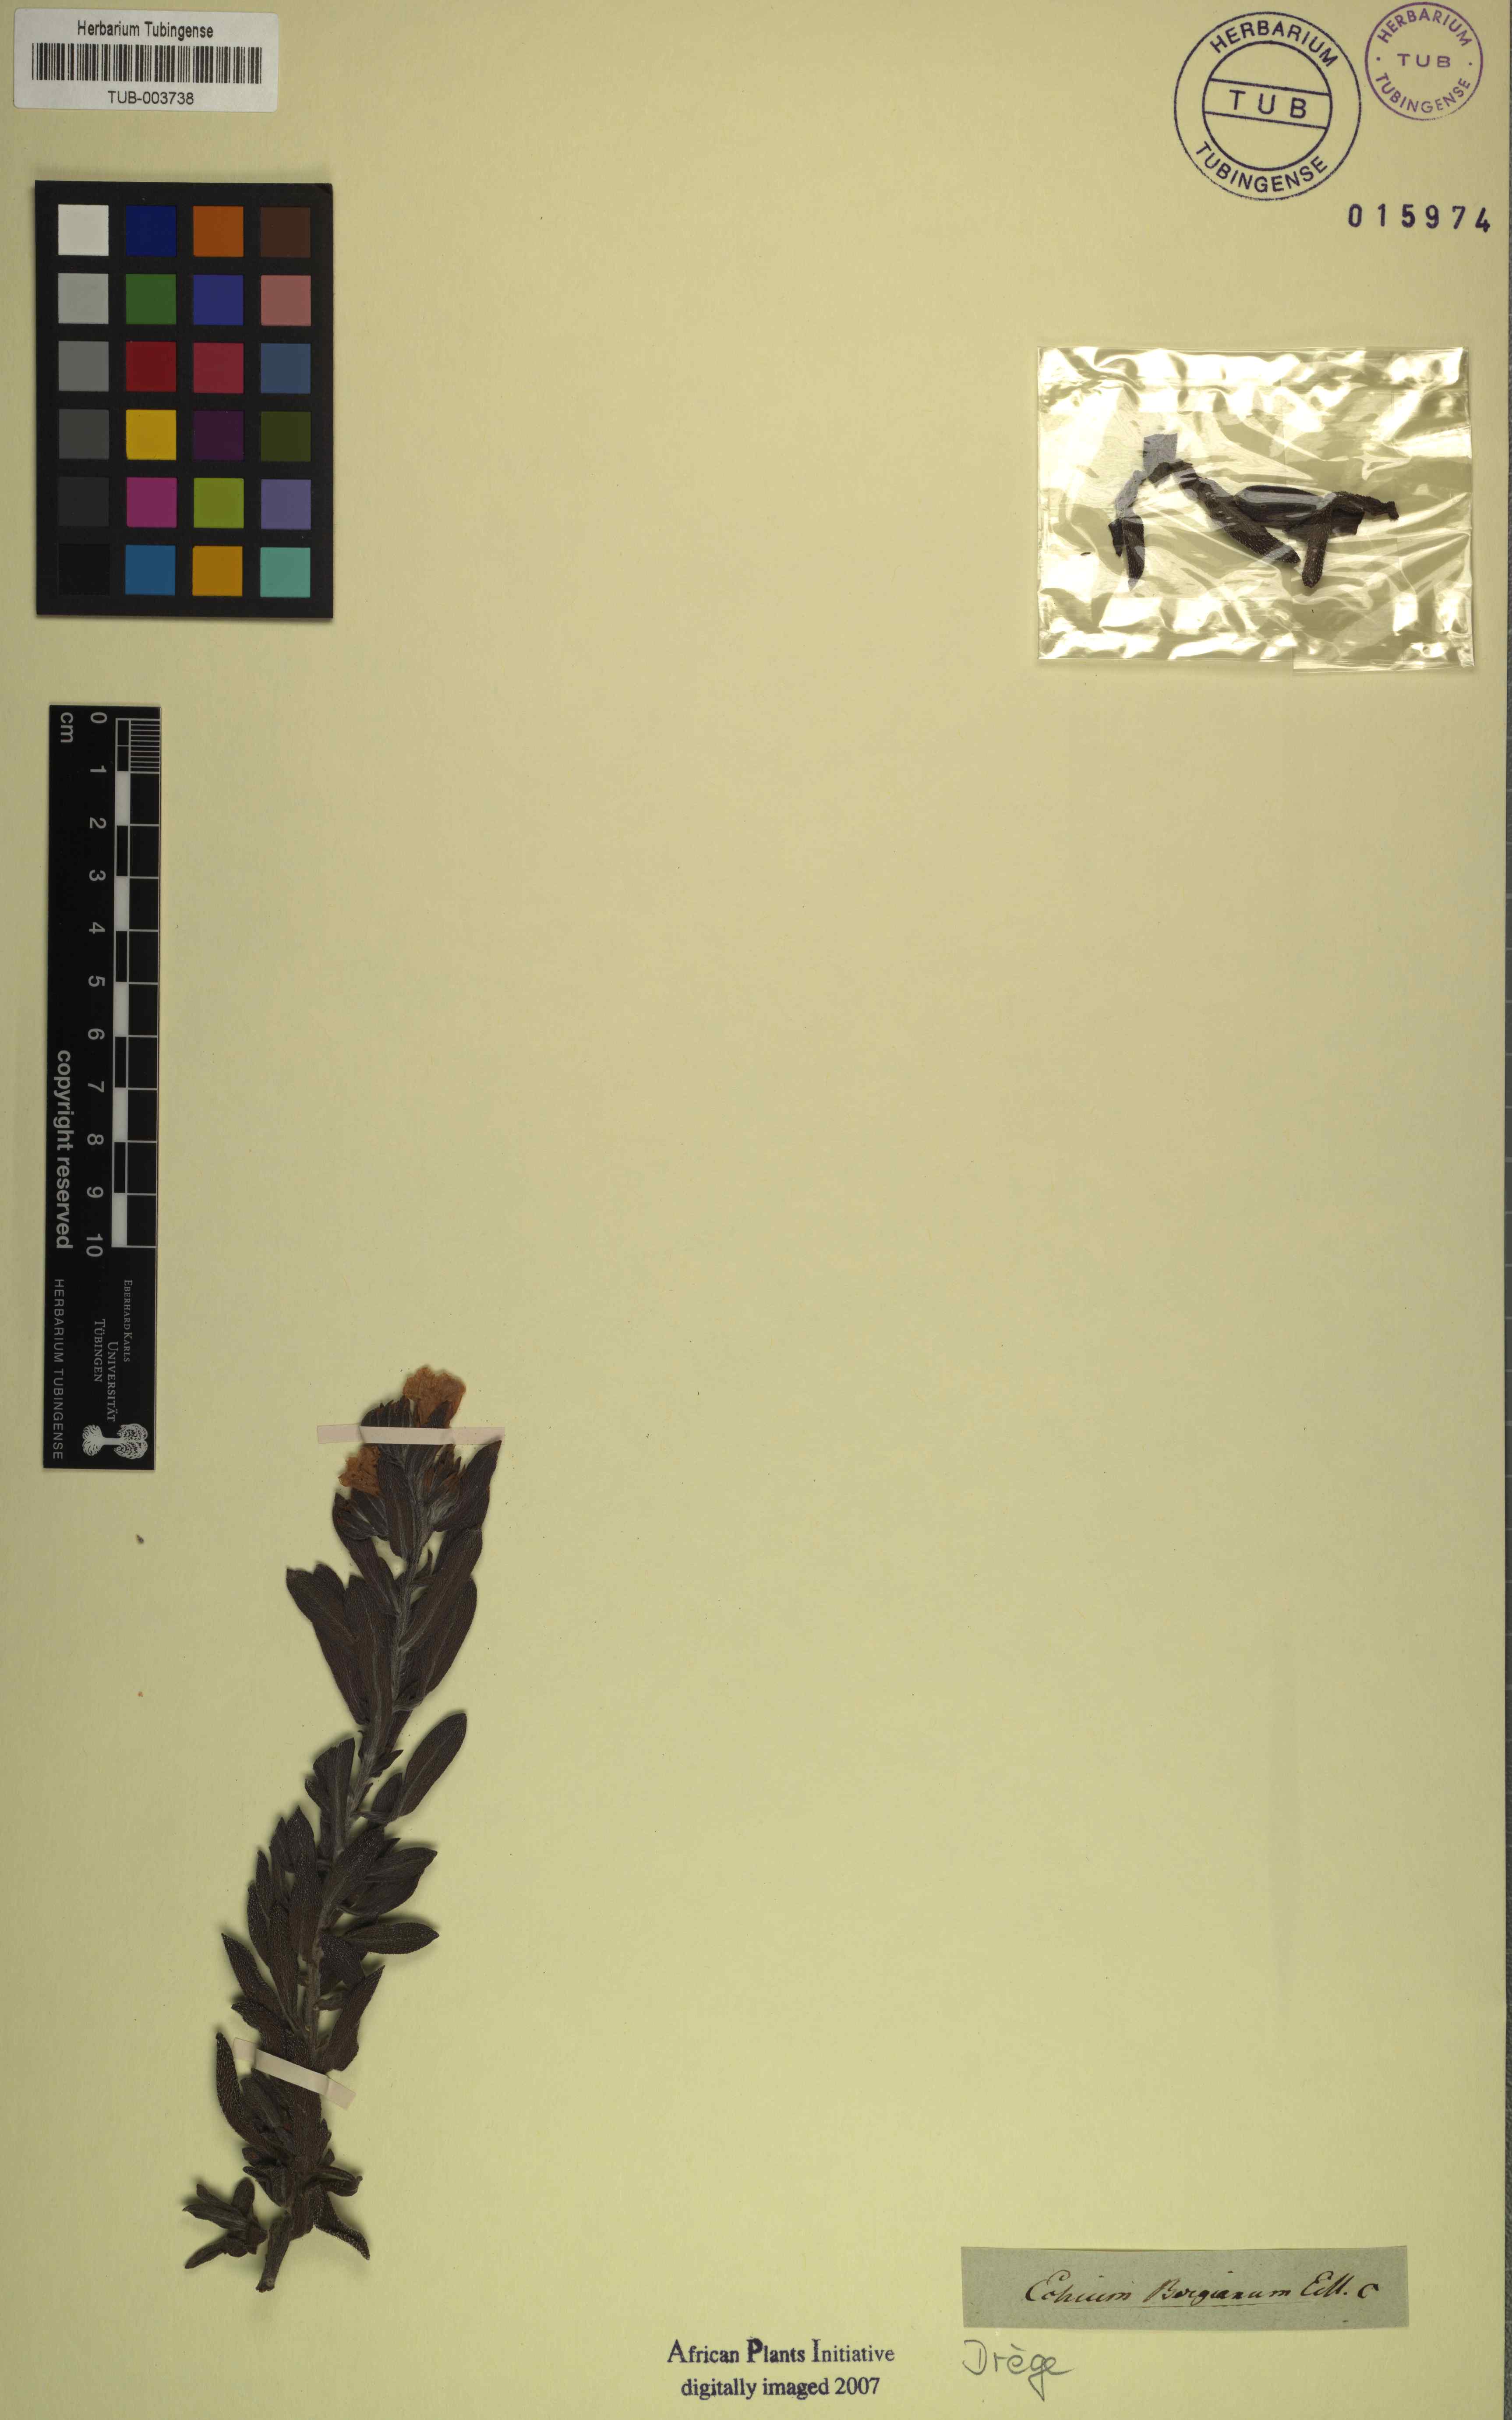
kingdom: Plantae
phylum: Tracheophyta
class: Magnoliopsida
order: Boraginales
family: Boraginaceae
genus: Lobostemon
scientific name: Lobostemon fruticosus
